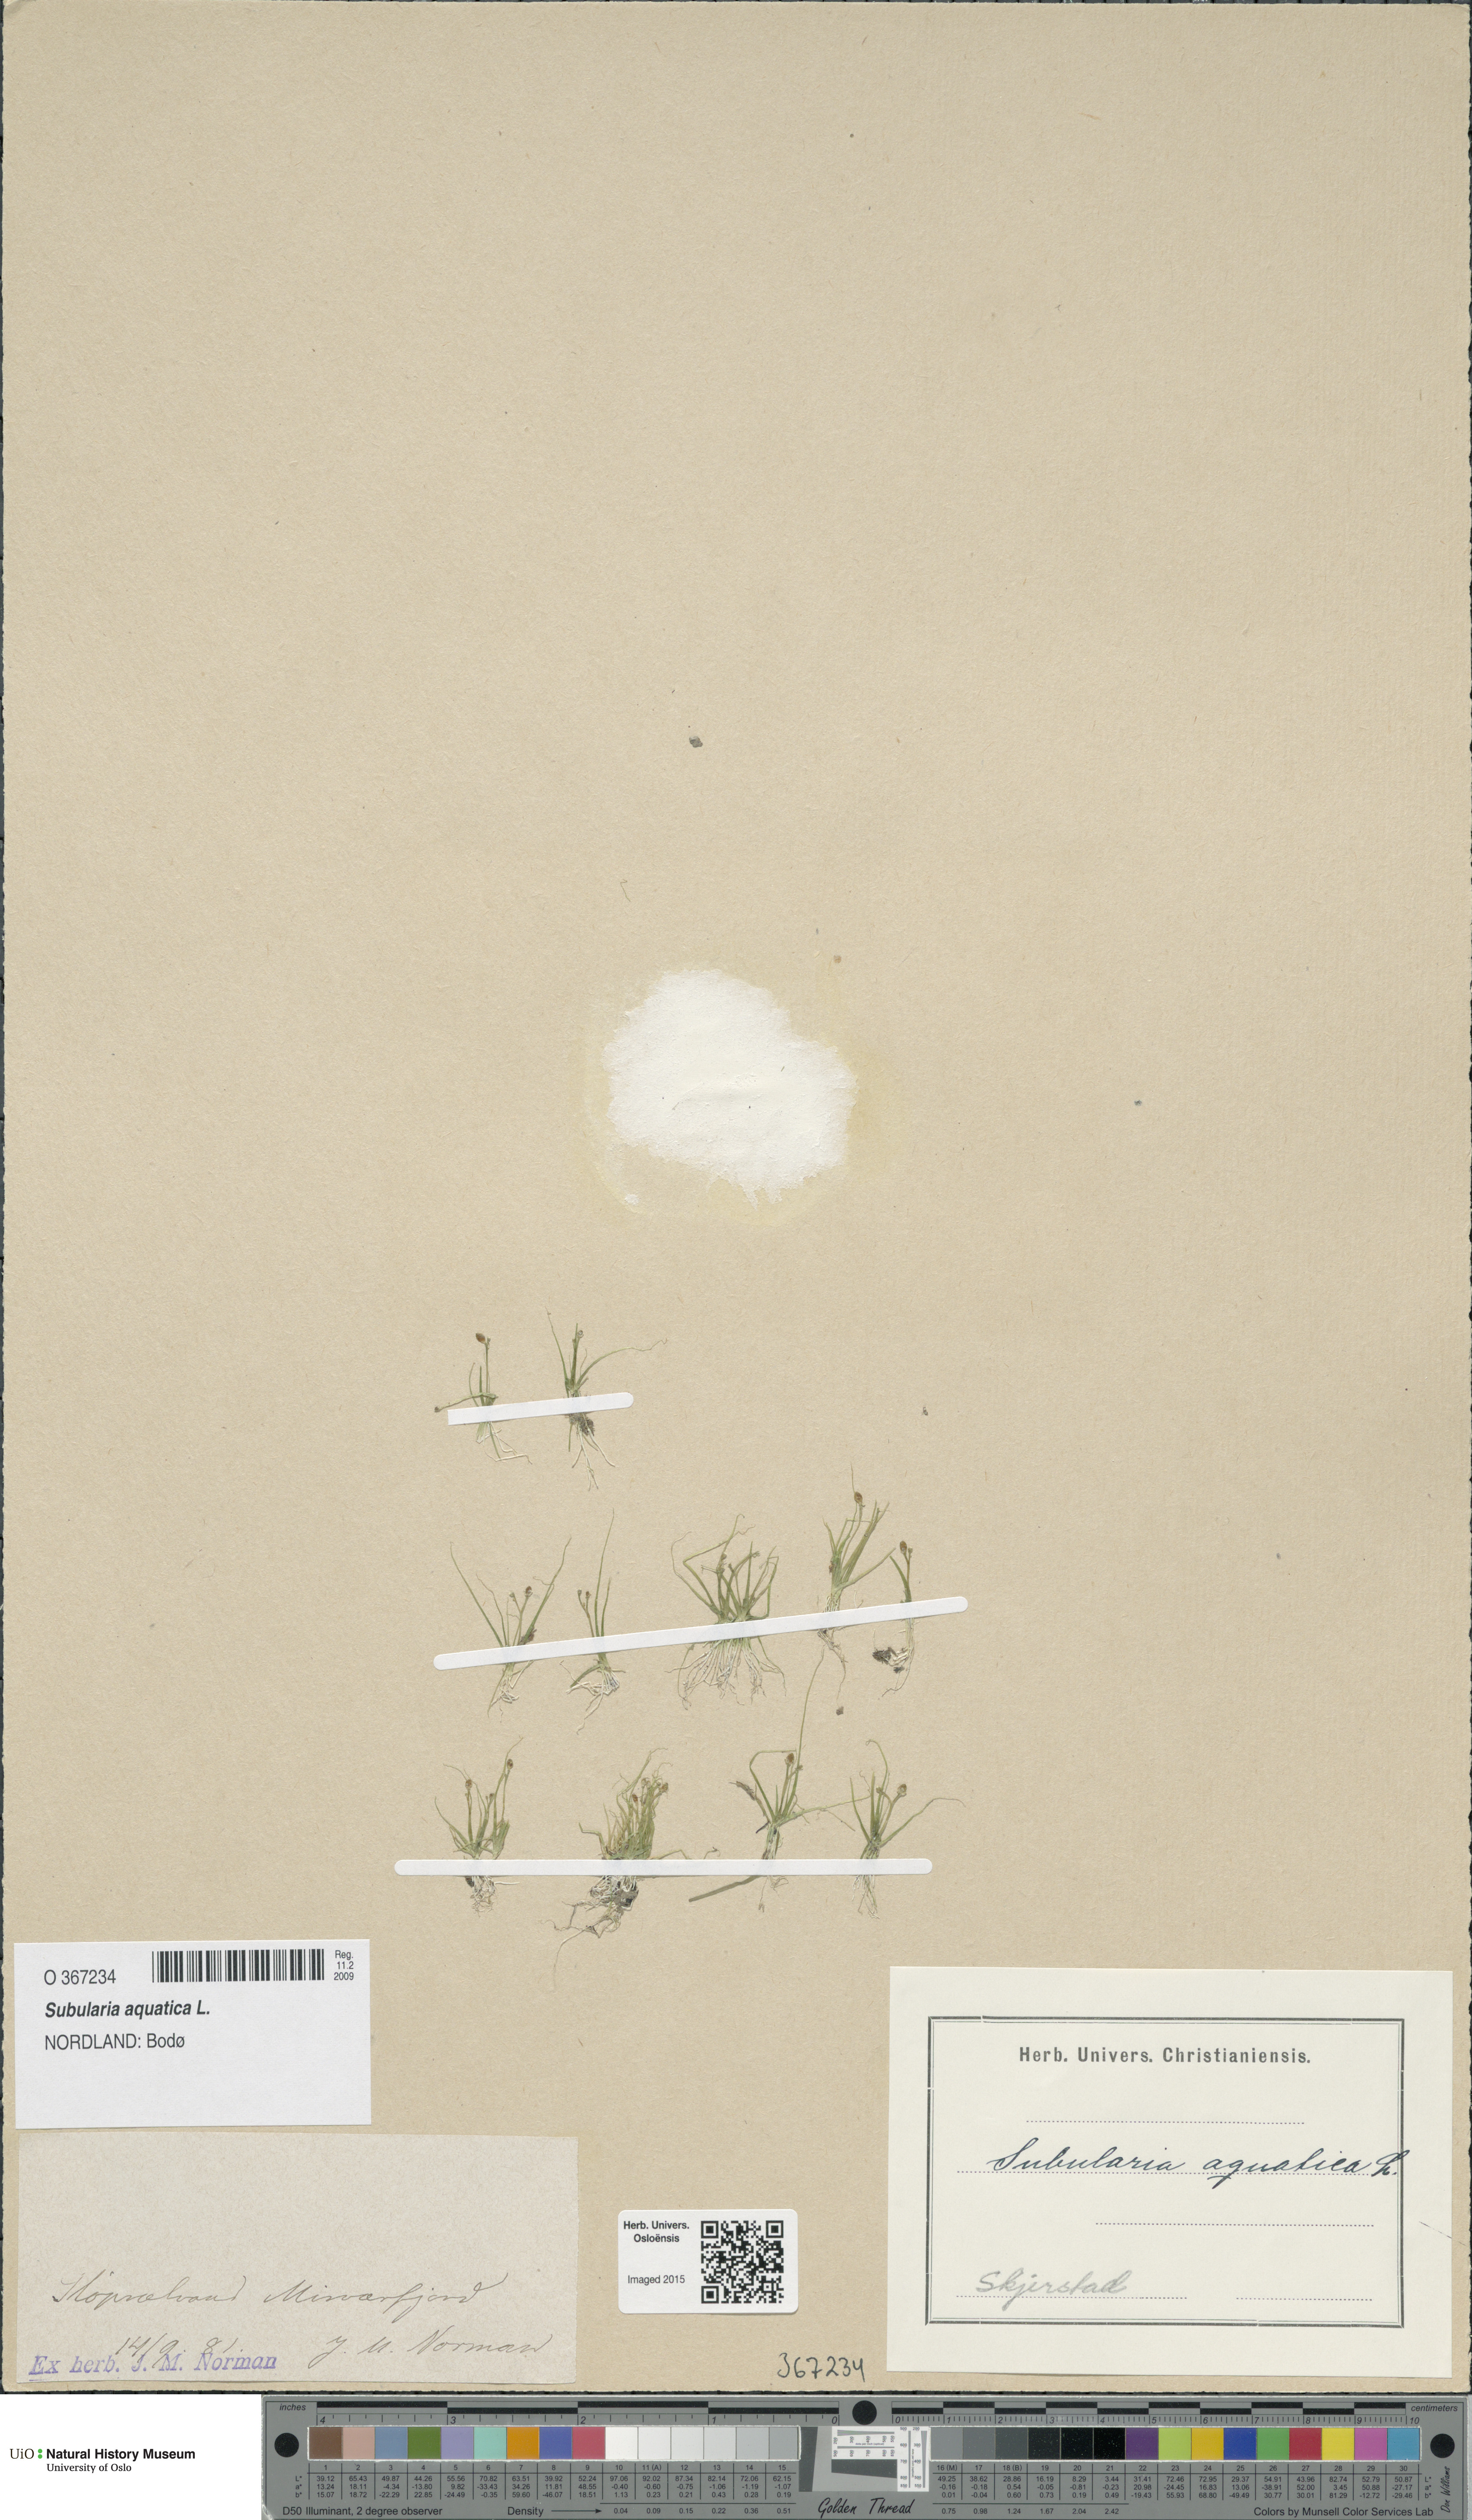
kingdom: Plantae
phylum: Tracheophyta
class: Magnoliopsida
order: Brassicales
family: Brassicaceae
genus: Subularia
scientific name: Subularia aquatica
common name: Awlwort
